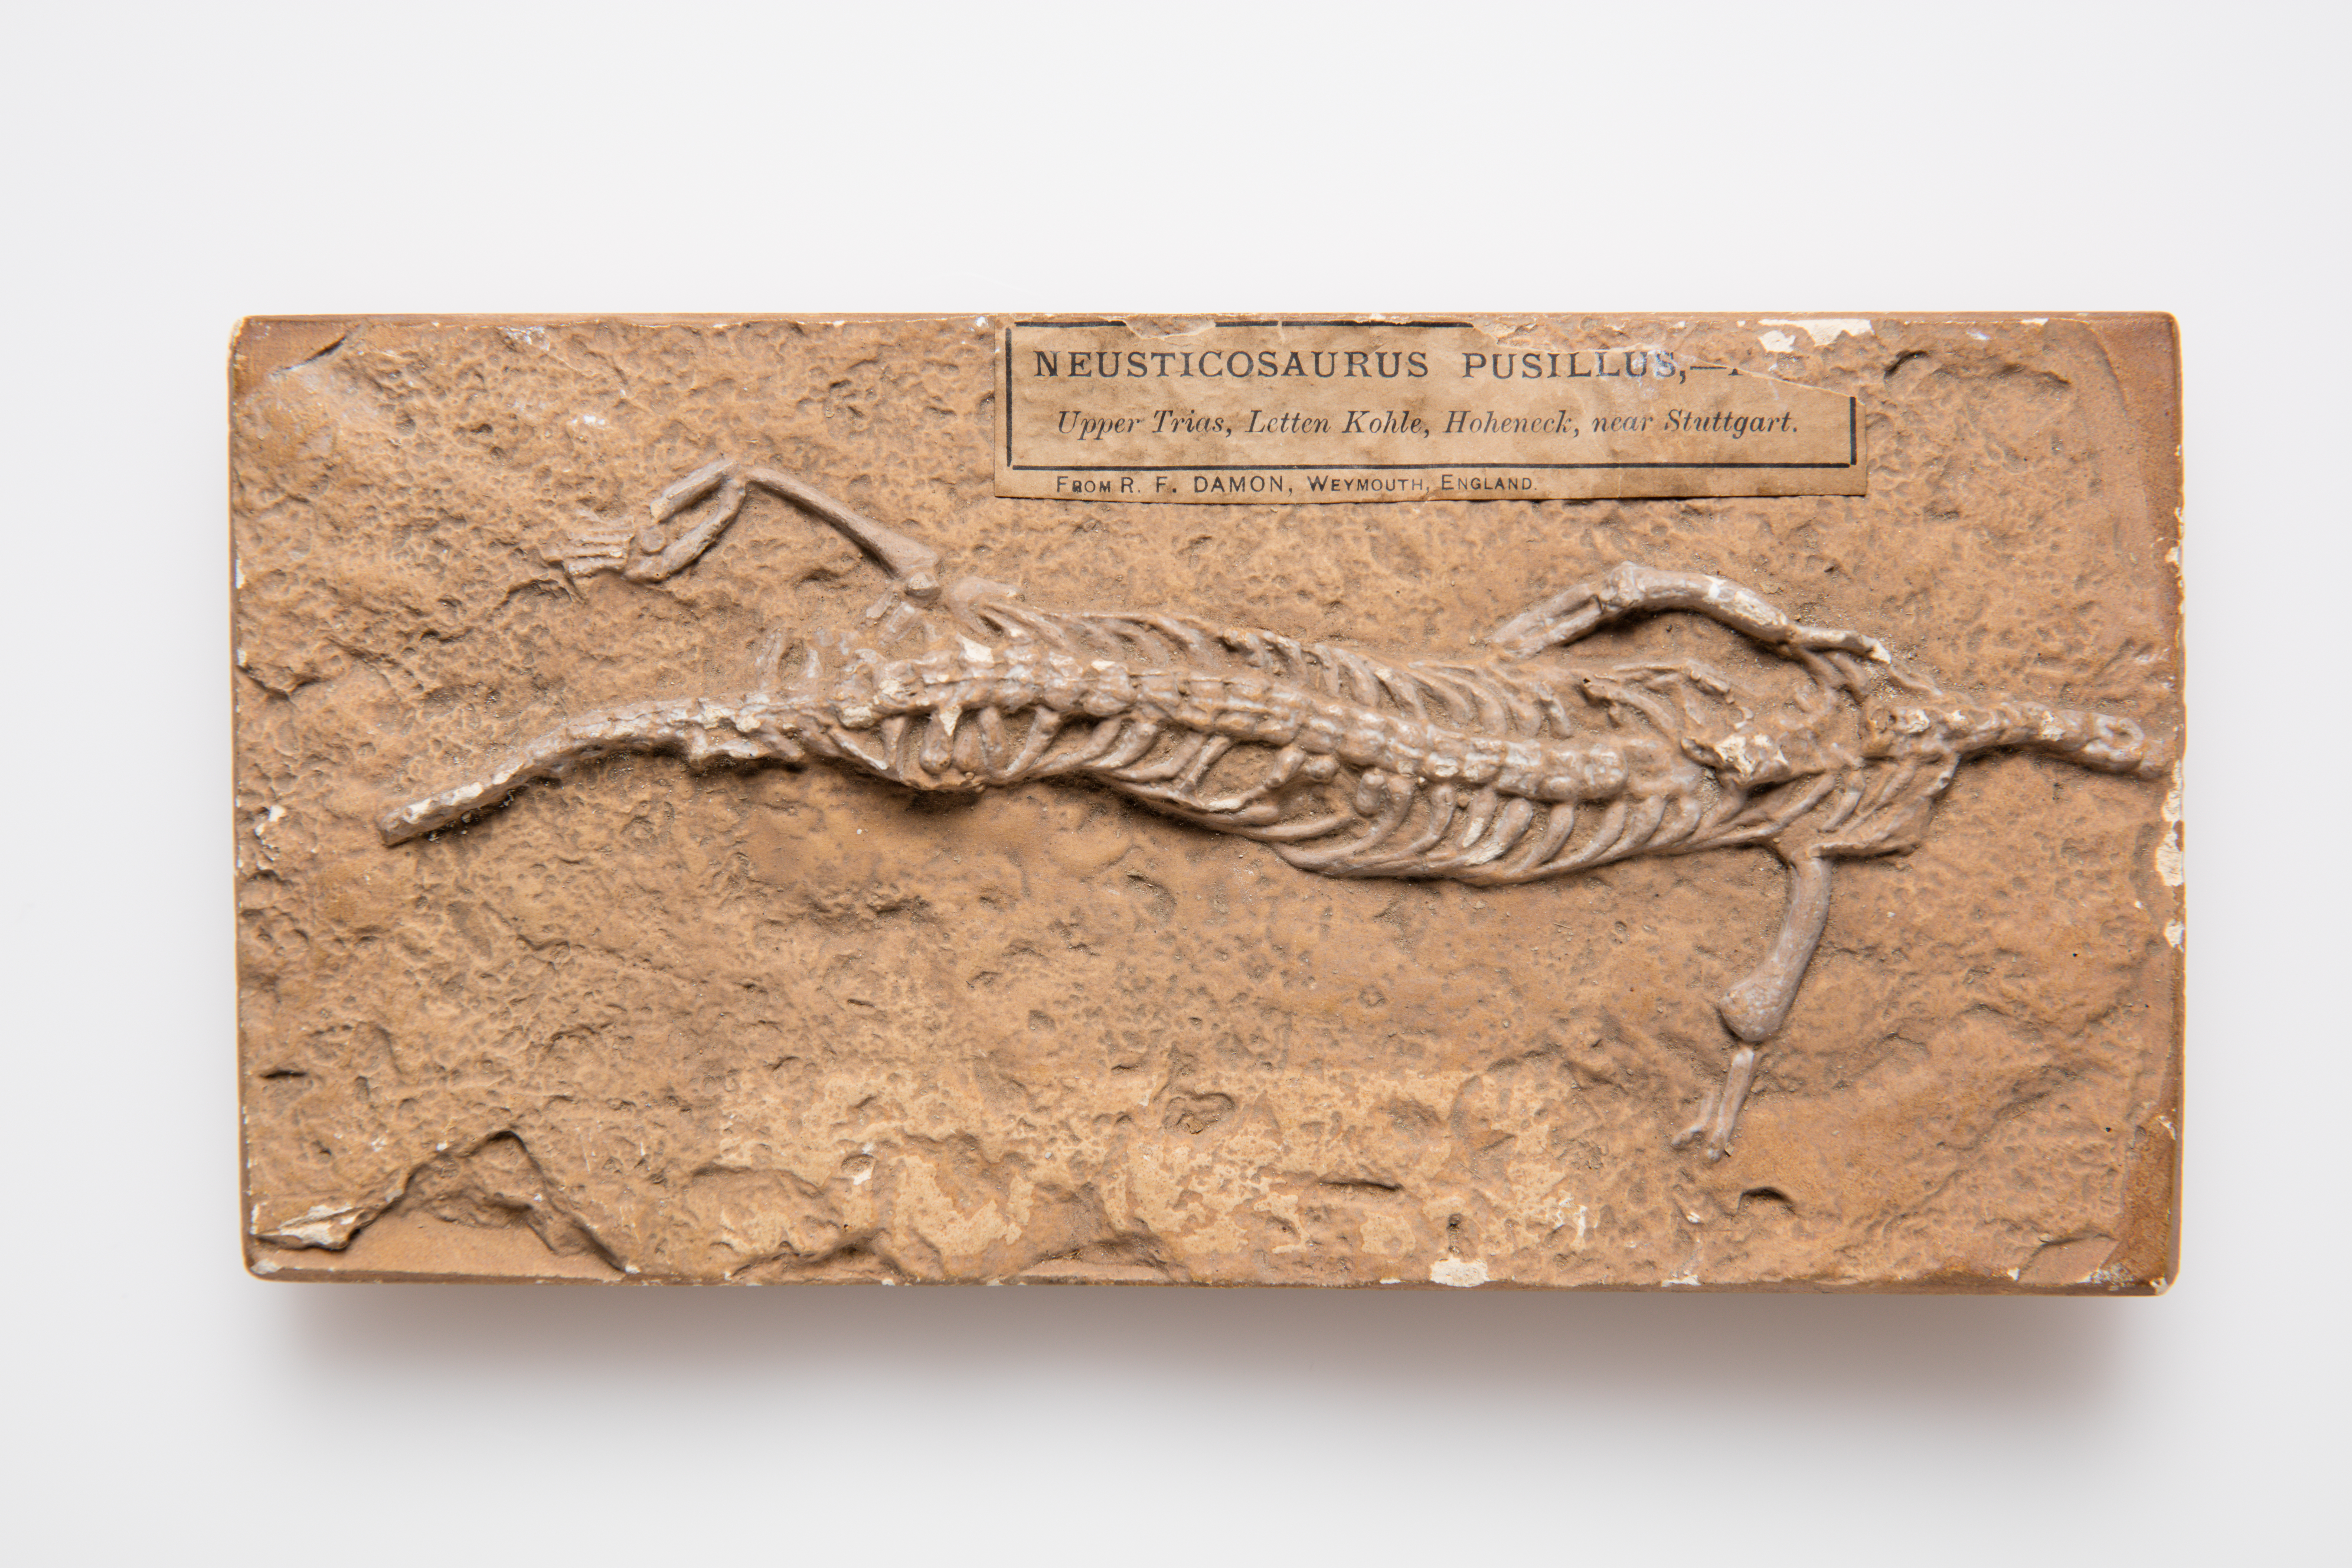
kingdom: Animalia
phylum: Chordata
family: Pachypleurosauridae
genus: Neusticosaurus
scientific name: Neusticosaurus Simosaurus pusillus
